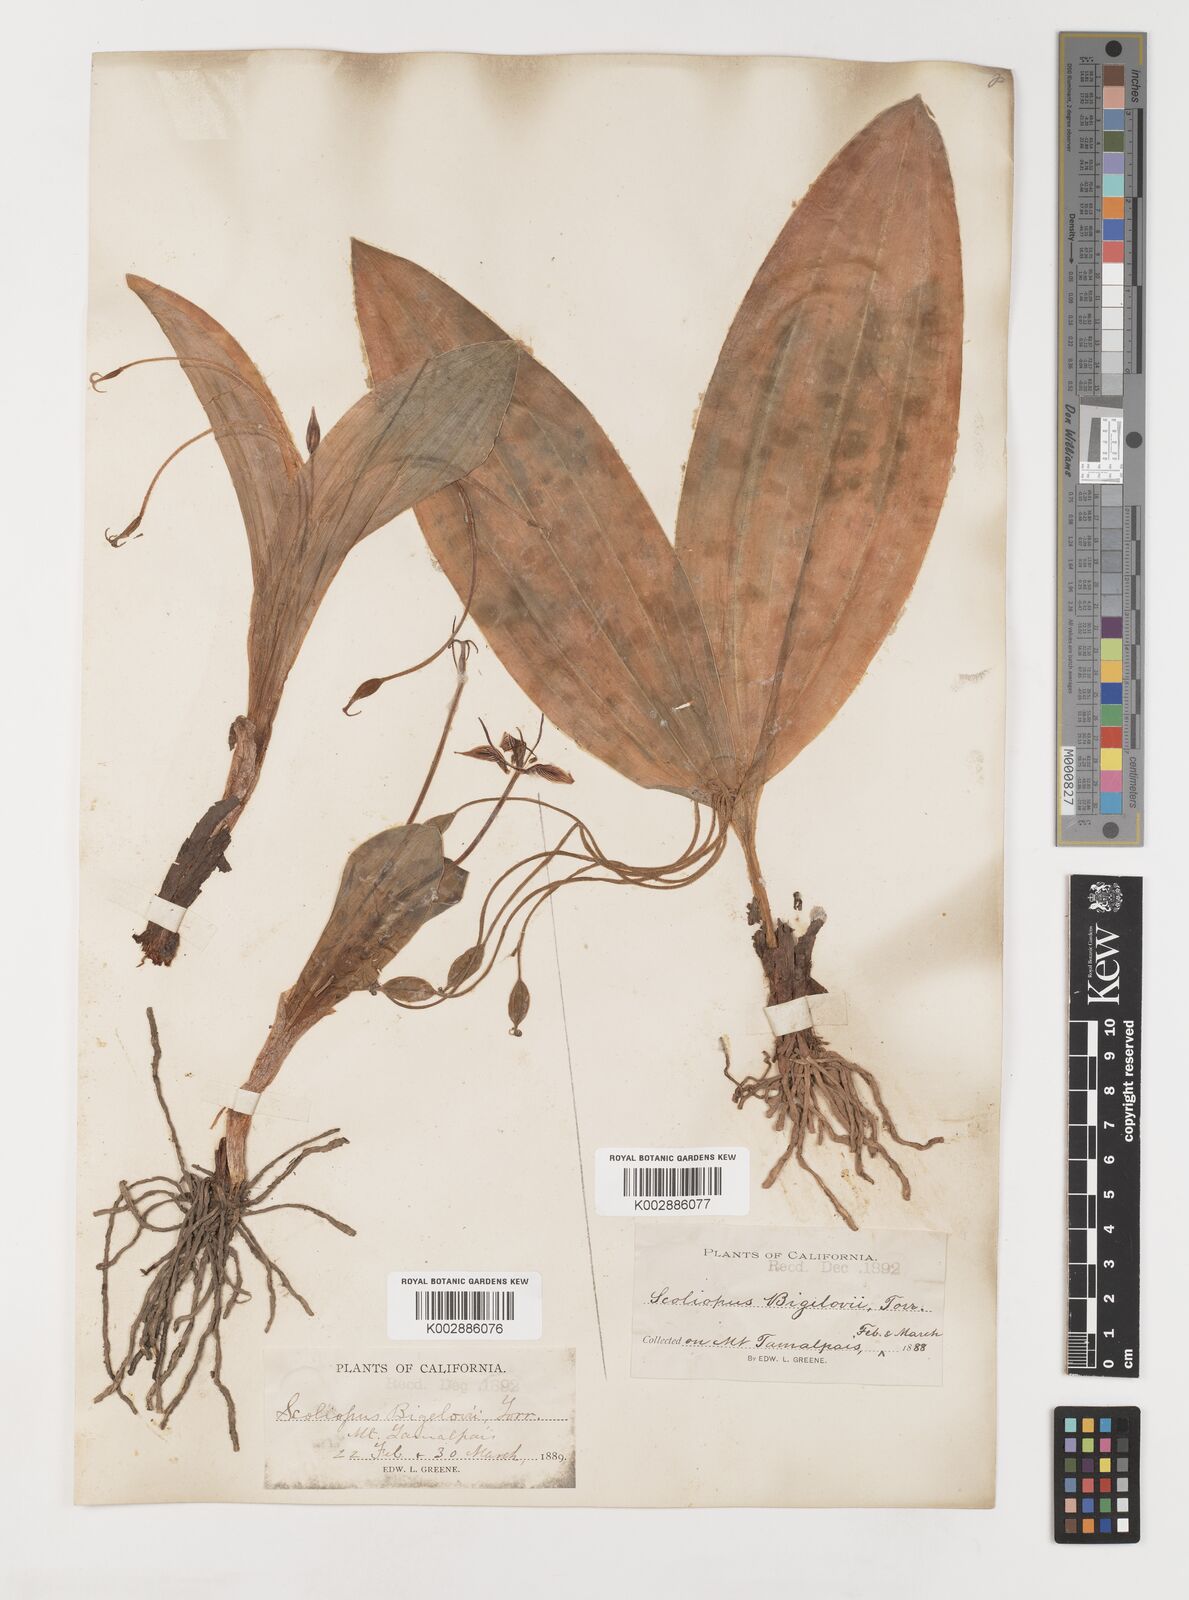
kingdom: Plantae
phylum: Tracheophyta
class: Liliopsida
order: Liliales
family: Liliaceae
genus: Scoliopus
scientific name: Scoliopus bigelovii
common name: Foetid adder's-tongue
